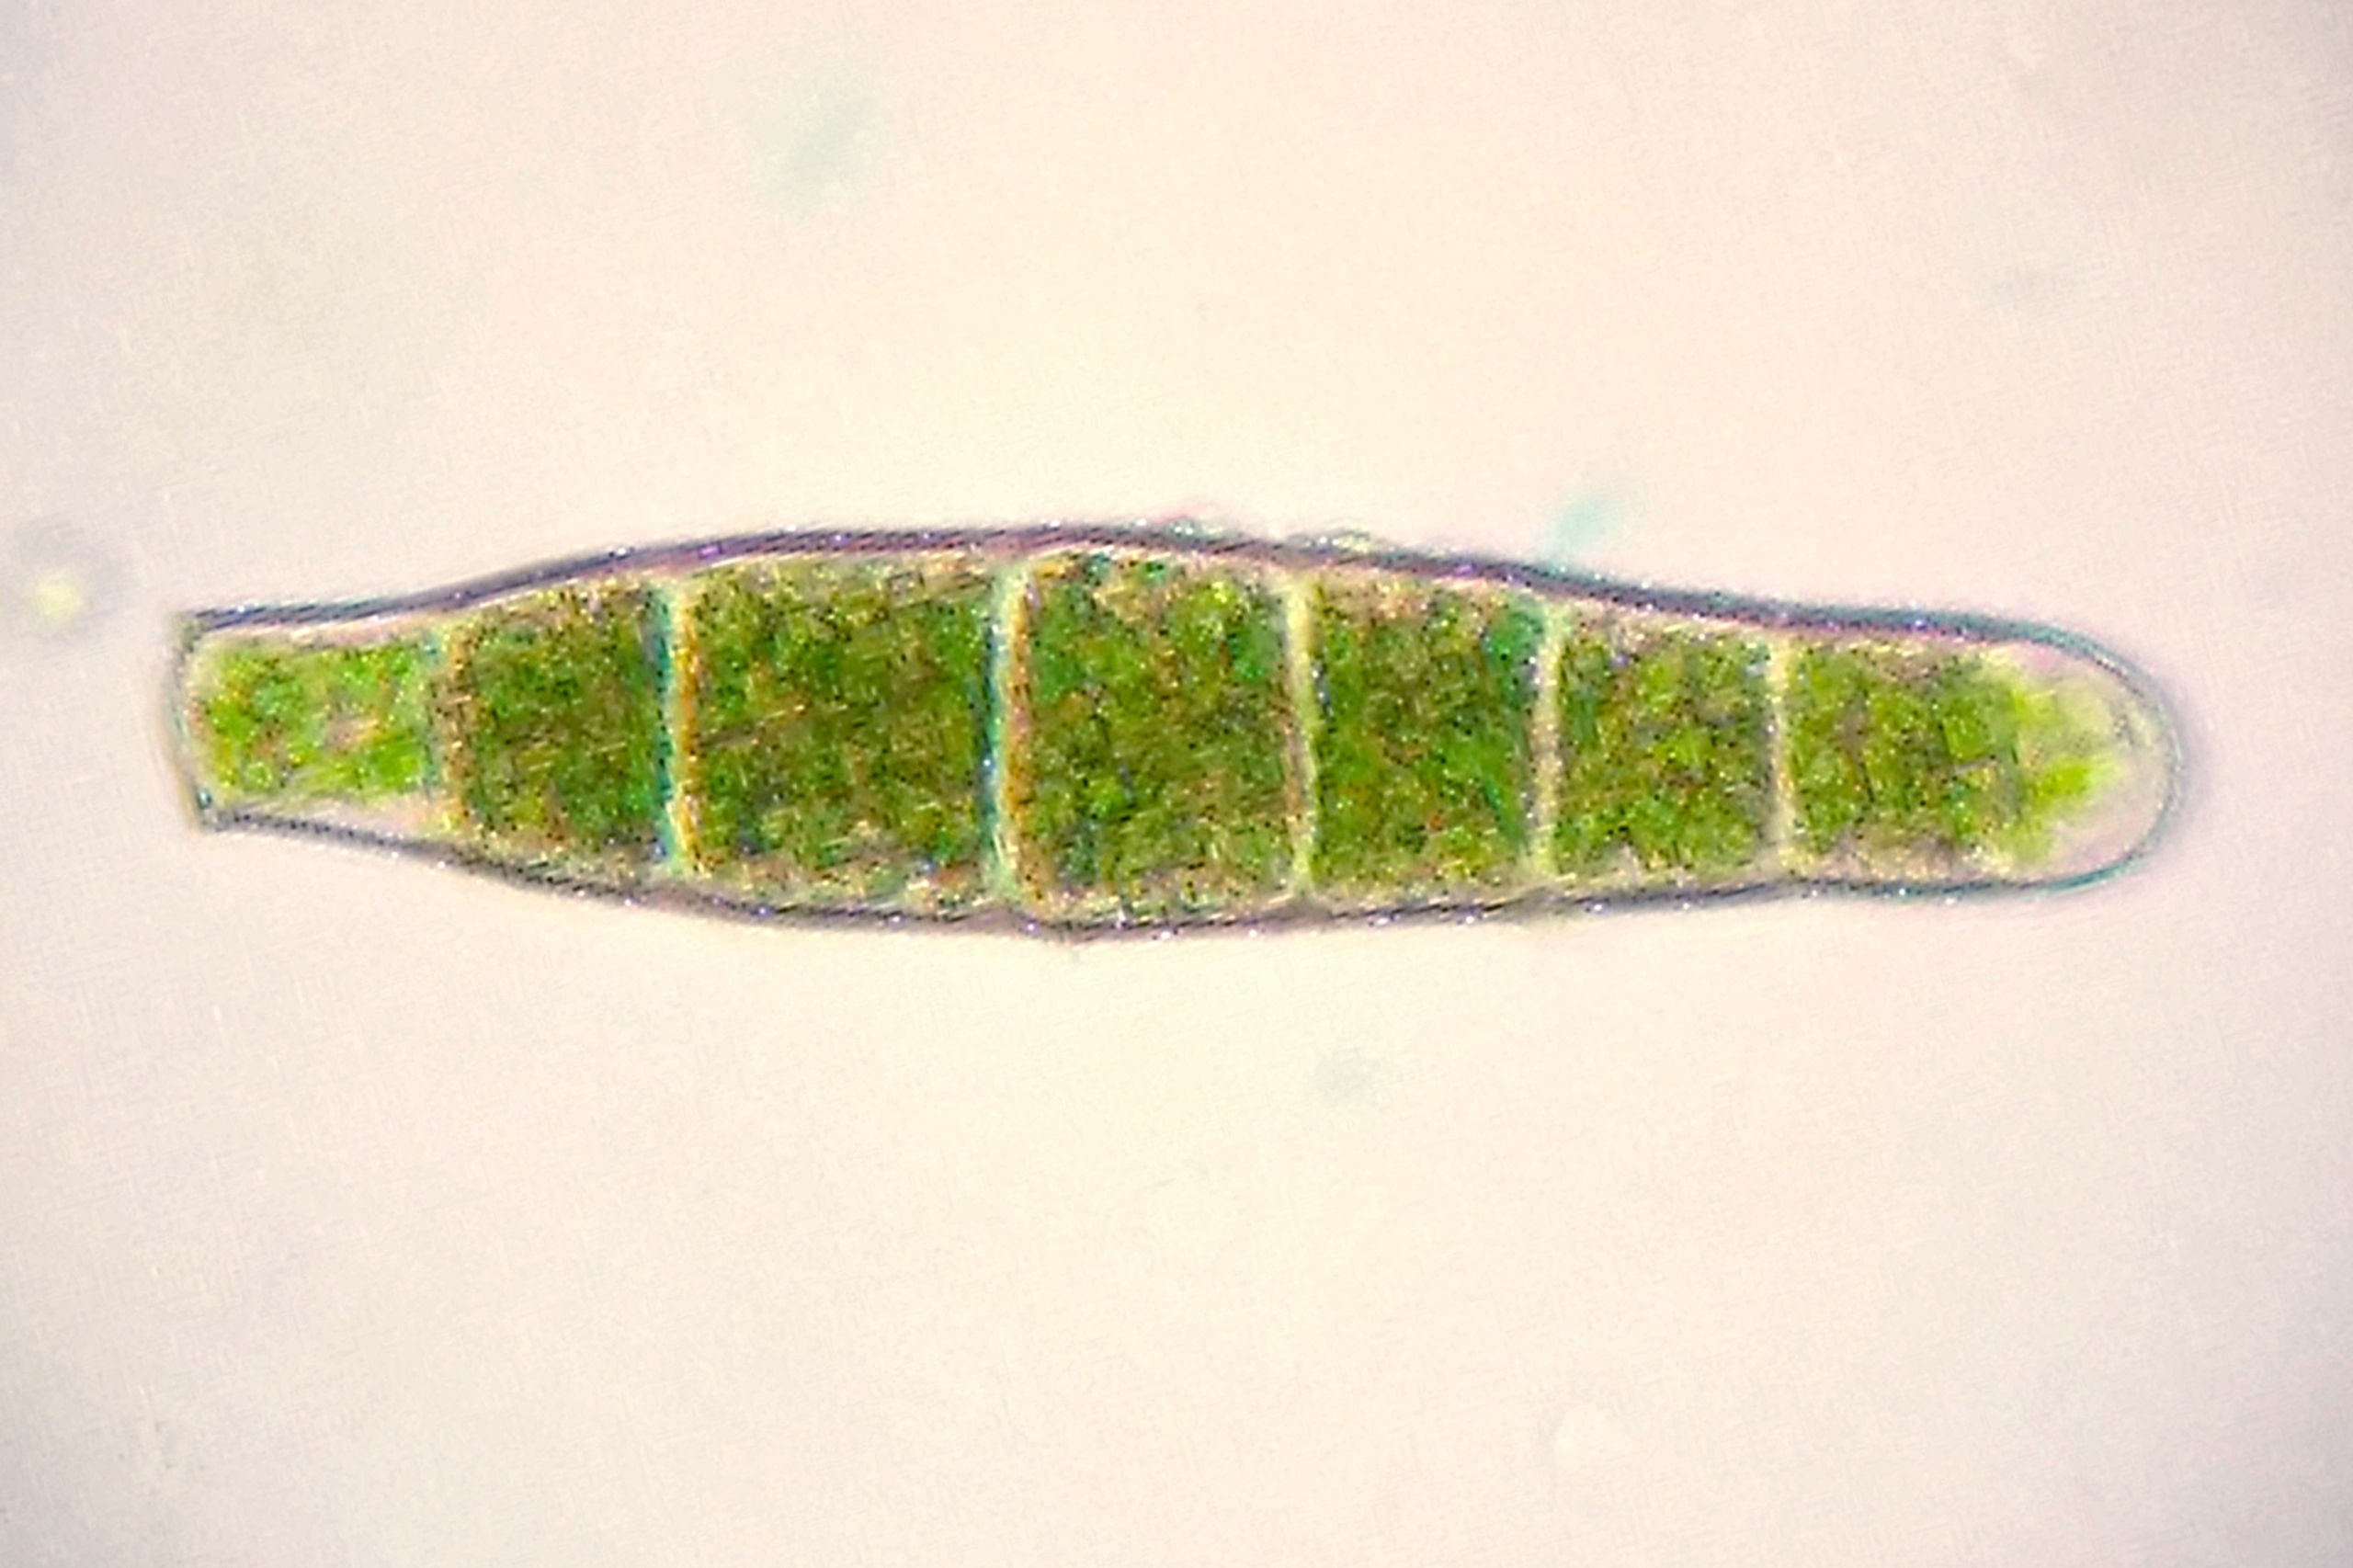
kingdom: Plantae
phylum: Bryophyta
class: Bryopsida
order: Orthotrichales
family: Orthotrichaceae
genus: Zygodon
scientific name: Zygodon conoideus
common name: Tand-køllemos
